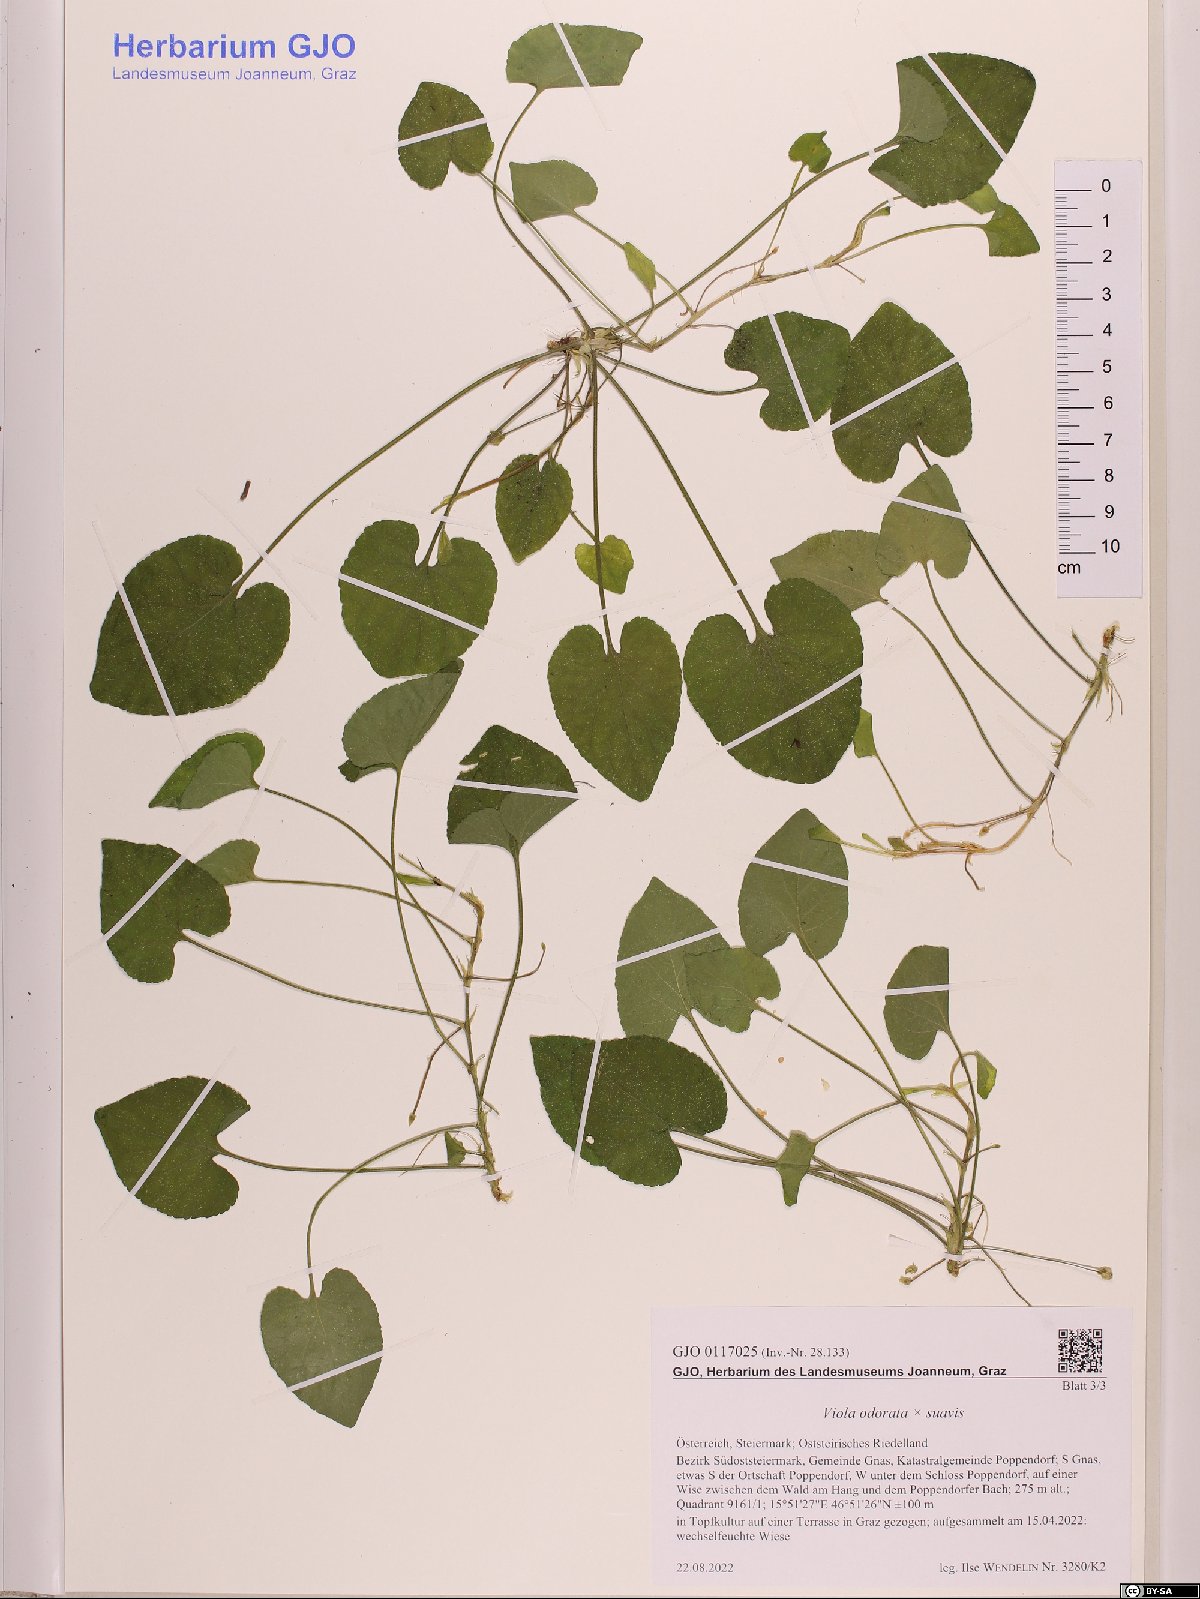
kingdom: Plantae
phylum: Tracheophyta
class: Magnoliopsida
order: Malpighiales
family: Violaceae
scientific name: Violaceae
